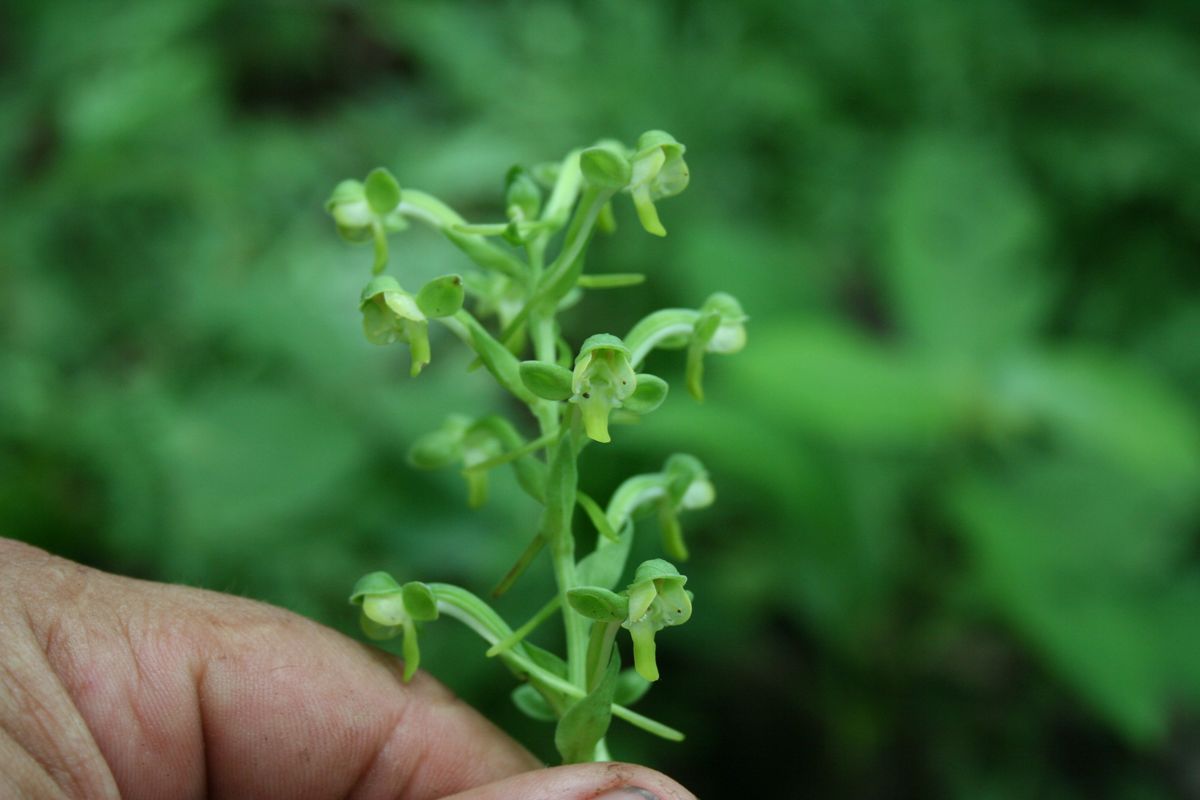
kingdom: Plantae
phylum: Tracheophyta
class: Liliopsida
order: Asparagales
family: Orchidaceae
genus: Habenaria
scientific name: Habenaria
